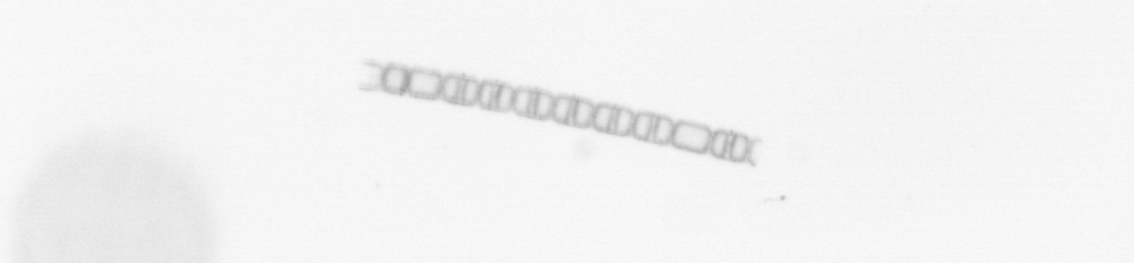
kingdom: Chromista
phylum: Ochrophyta
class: Bacillariophyceae
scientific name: Bacillariophyceae
